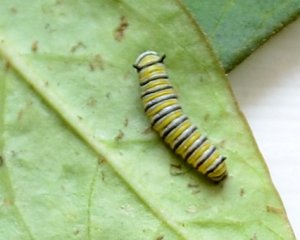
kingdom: Animalia
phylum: Arthropoda
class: Insecta
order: Lepidoptera
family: Nymphalidae
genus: Danaus
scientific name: Danaus plexippus
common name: Monarch
